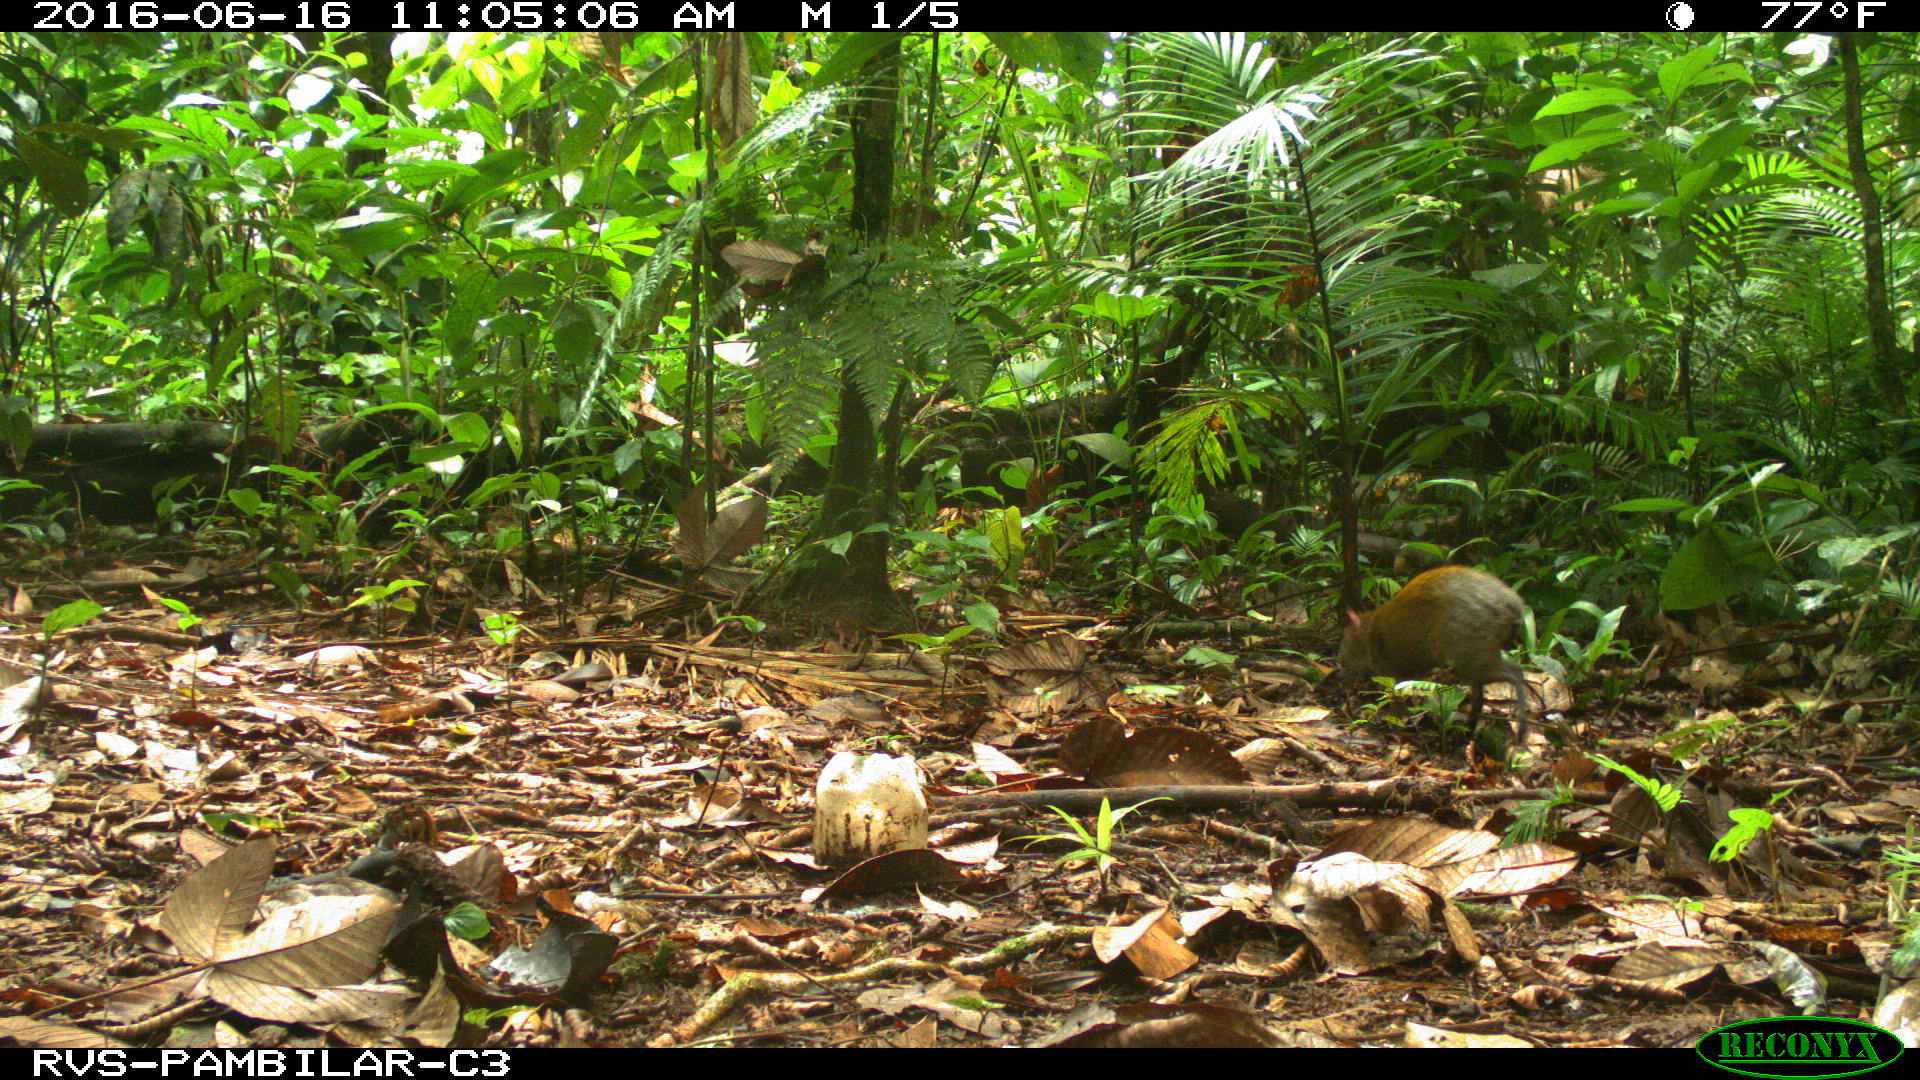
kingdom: Animalia
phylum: Chordata
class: Mammalia
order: Rodentia
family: Dasyproctidae
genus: Dasyprocta
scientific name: Dasyprocta punctata
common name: Central american agouti
